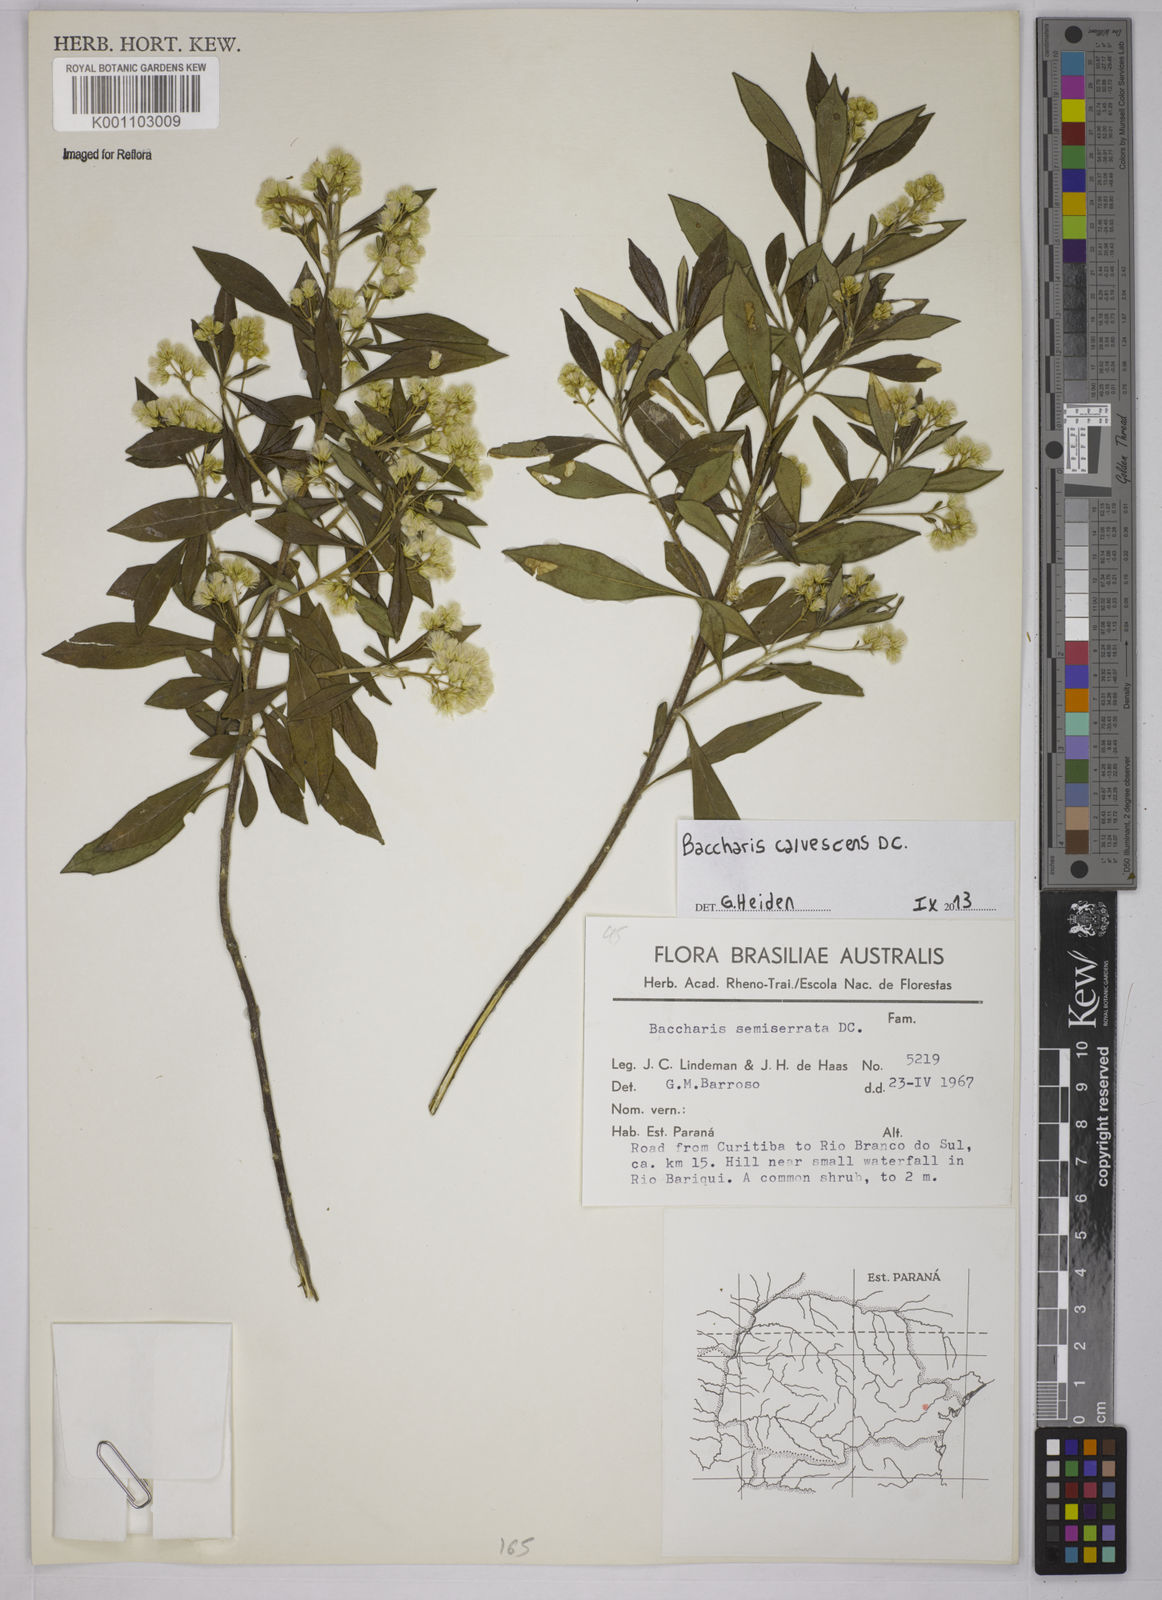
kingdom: Plantae
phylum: Tracheophyta
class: Magnoliopsida
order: Asterales
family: Asteraceae
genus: Baccharis
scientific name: Baccharis calvescens
